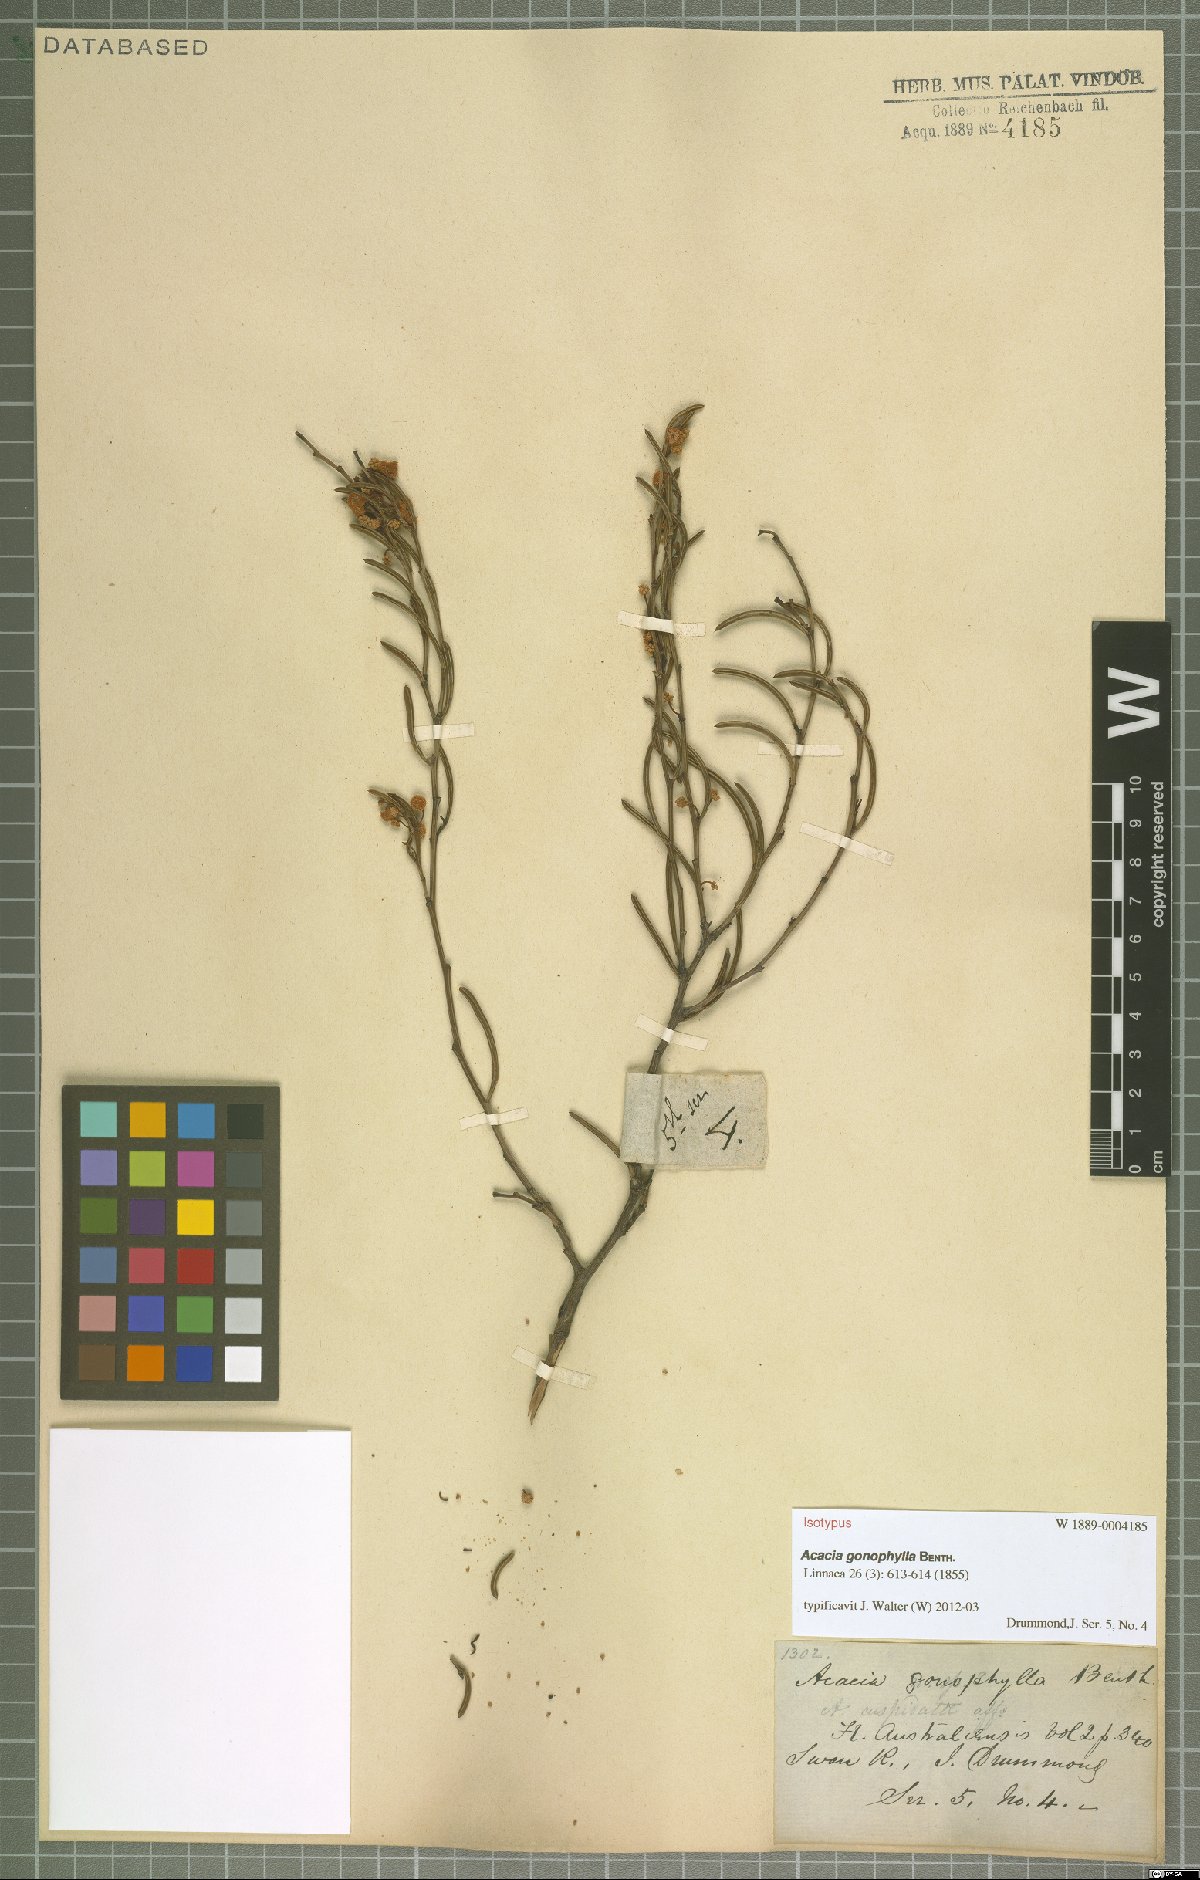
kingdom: Plantae
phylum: Tracheophyta
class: Magnoliopsida
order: Fabales
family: Fabaceae
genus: Acacia
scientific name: Acacia gonophylla
